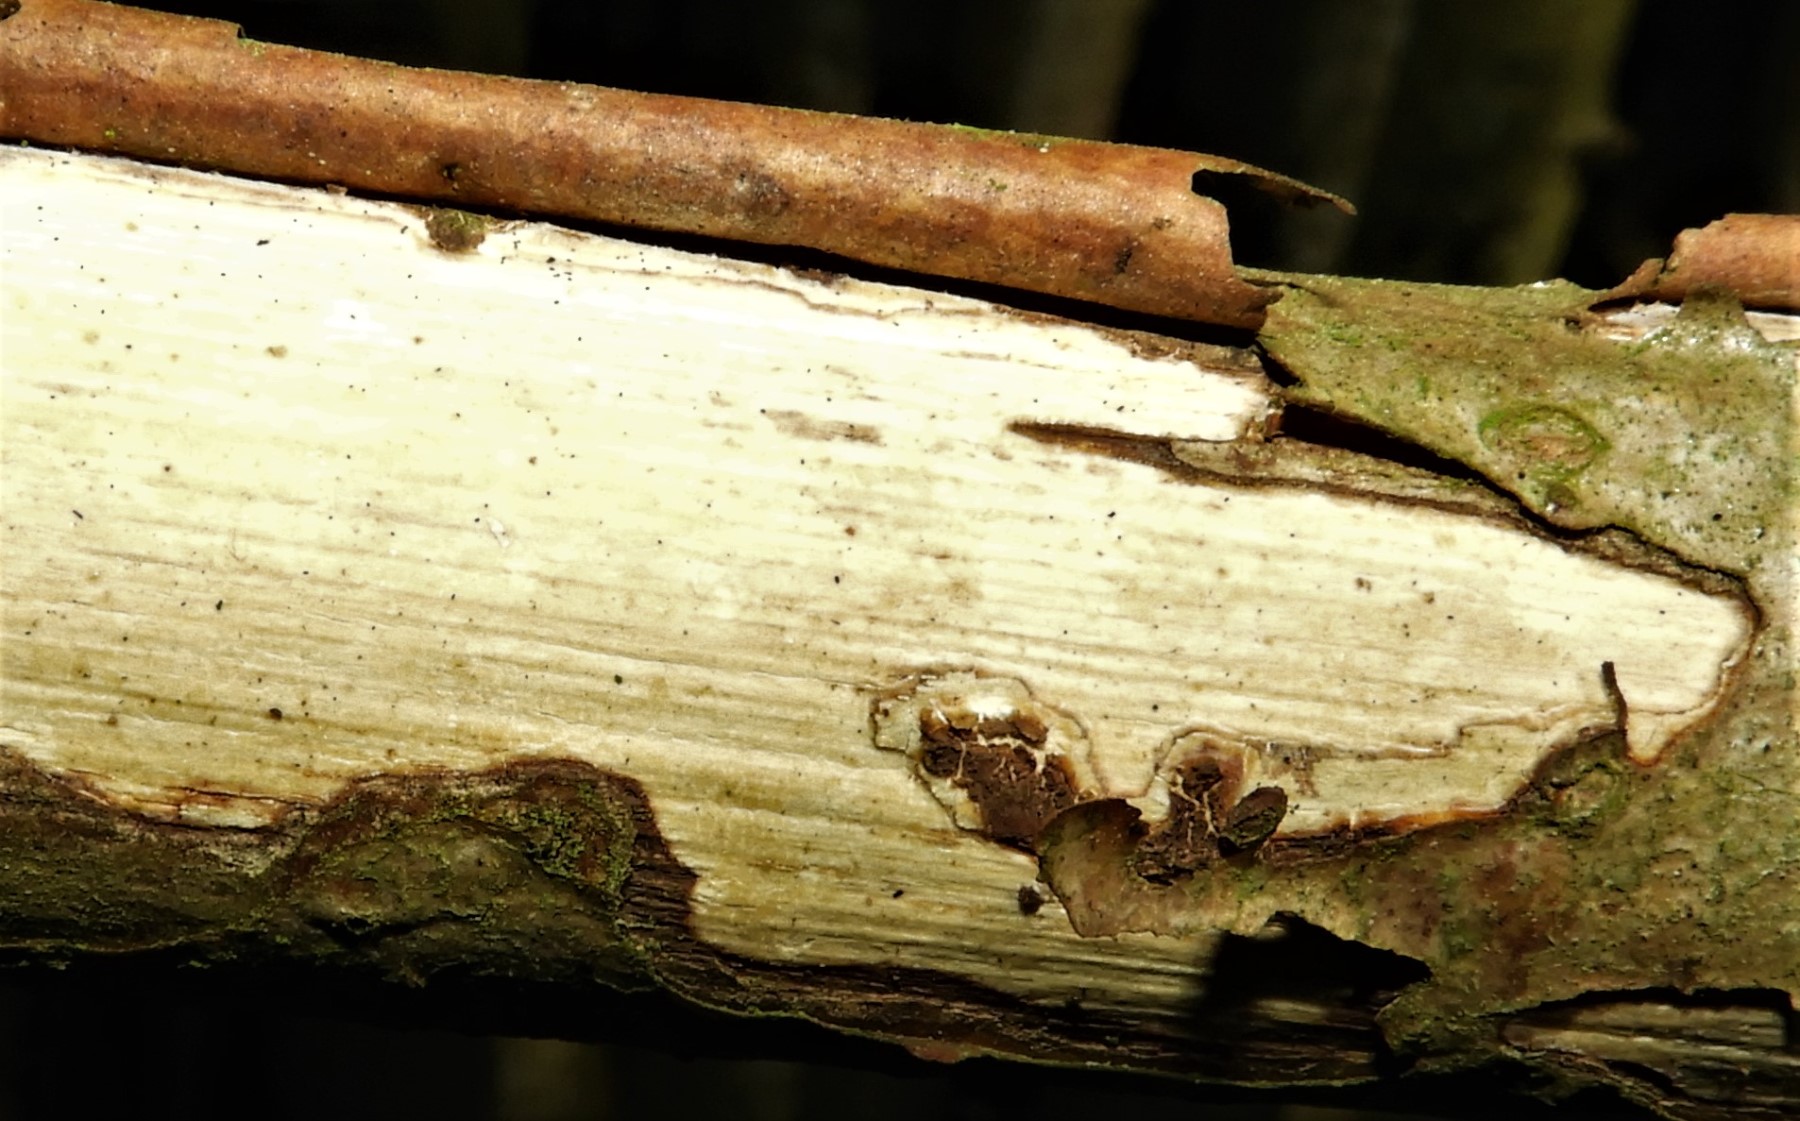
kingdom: Fungi
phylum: Basidiomycota
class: Agaricomycetes
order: Corticiales
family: Vuilleminiaceae
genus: Vuilleminia
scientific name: Vuilleminia coryli
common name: hassel-barksprænger
